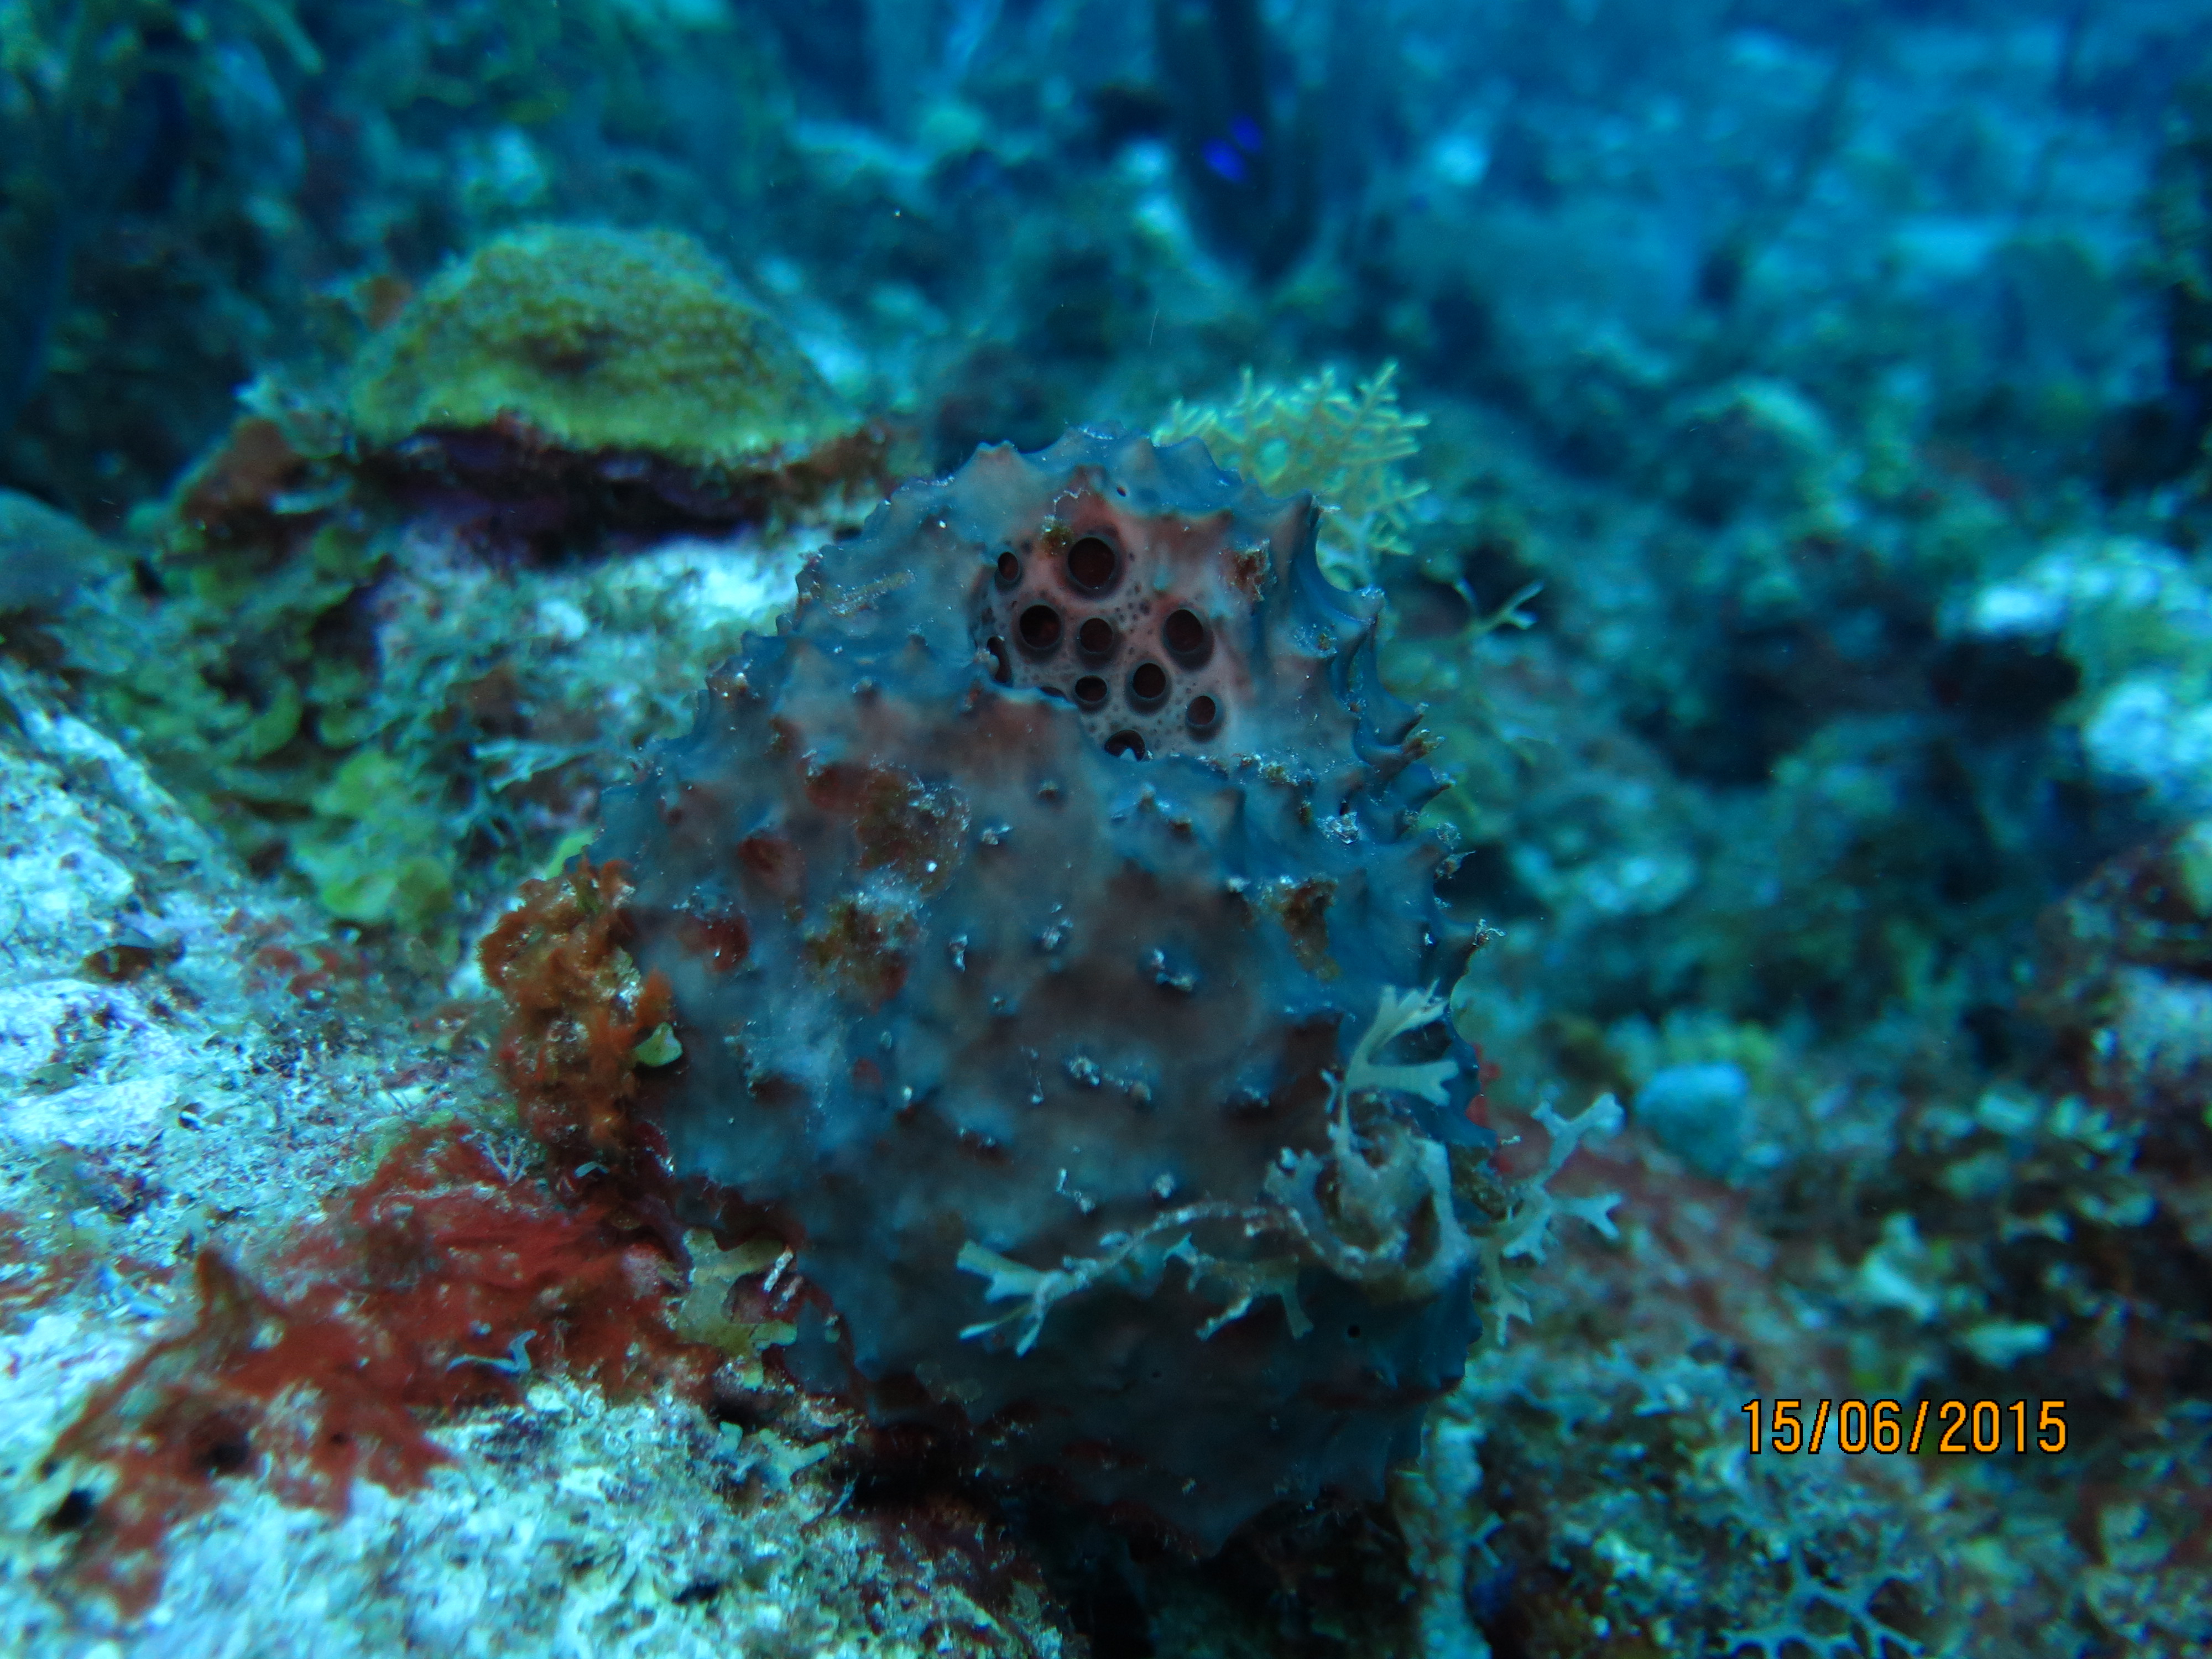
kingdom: Animalia
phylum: Porifera
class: Demospongiae
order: Dictyoceratida
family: Irciniidae
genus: Ircinia
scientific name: Ircinia
